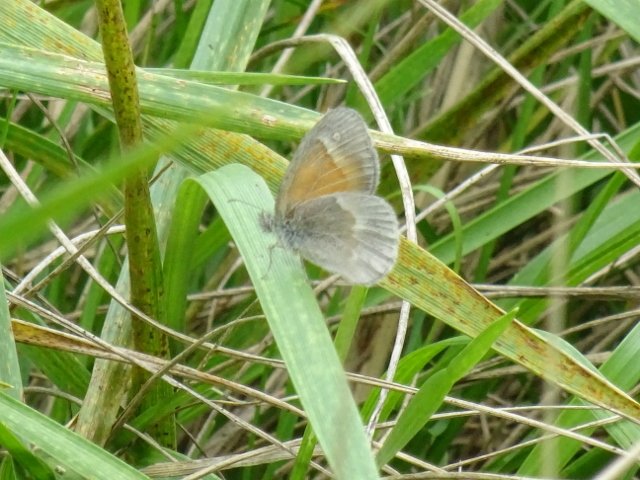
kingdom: Animalia
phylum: Arthropoda
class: Insecta
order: Lepidoptera
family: Nymphalidae
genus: Coenonympha
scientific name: Coenonympha tullia
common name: Large Heath
